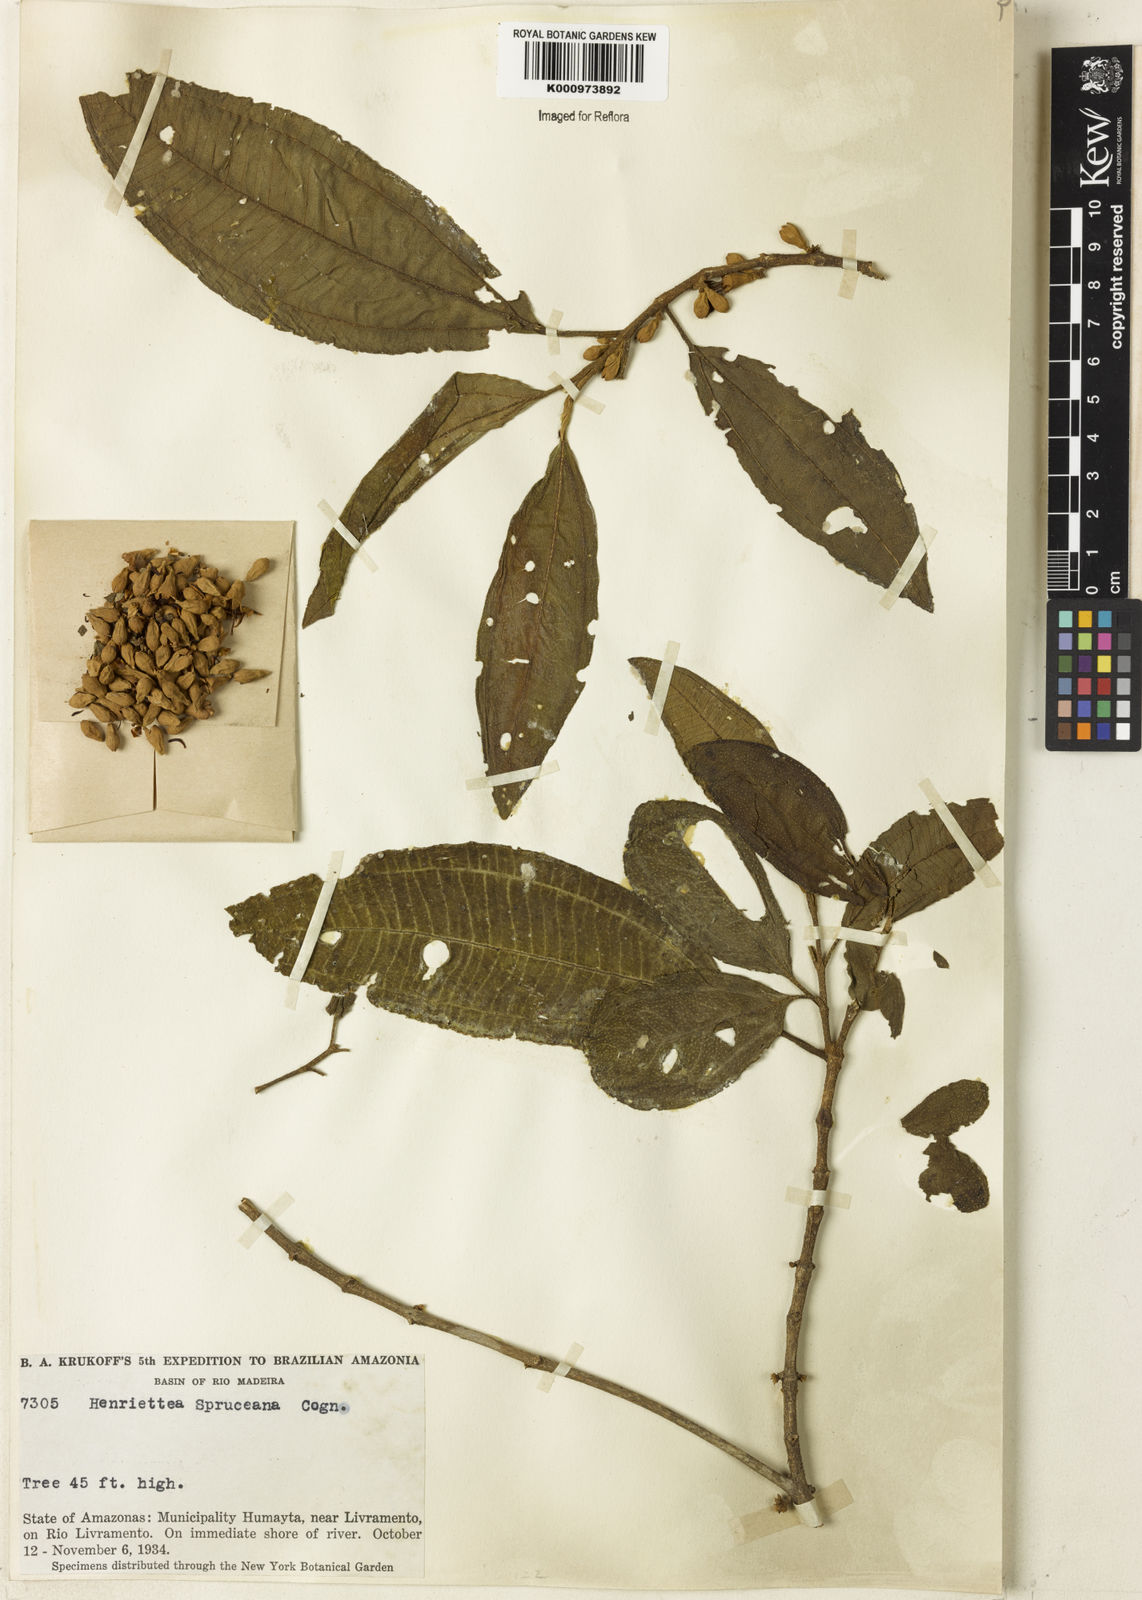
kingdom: Plantae
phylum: Tracheophyta
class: Magnoliopsida
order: Myrtales
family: Melastomataceae
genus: Henriettea
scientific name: Henriettea spruceana
